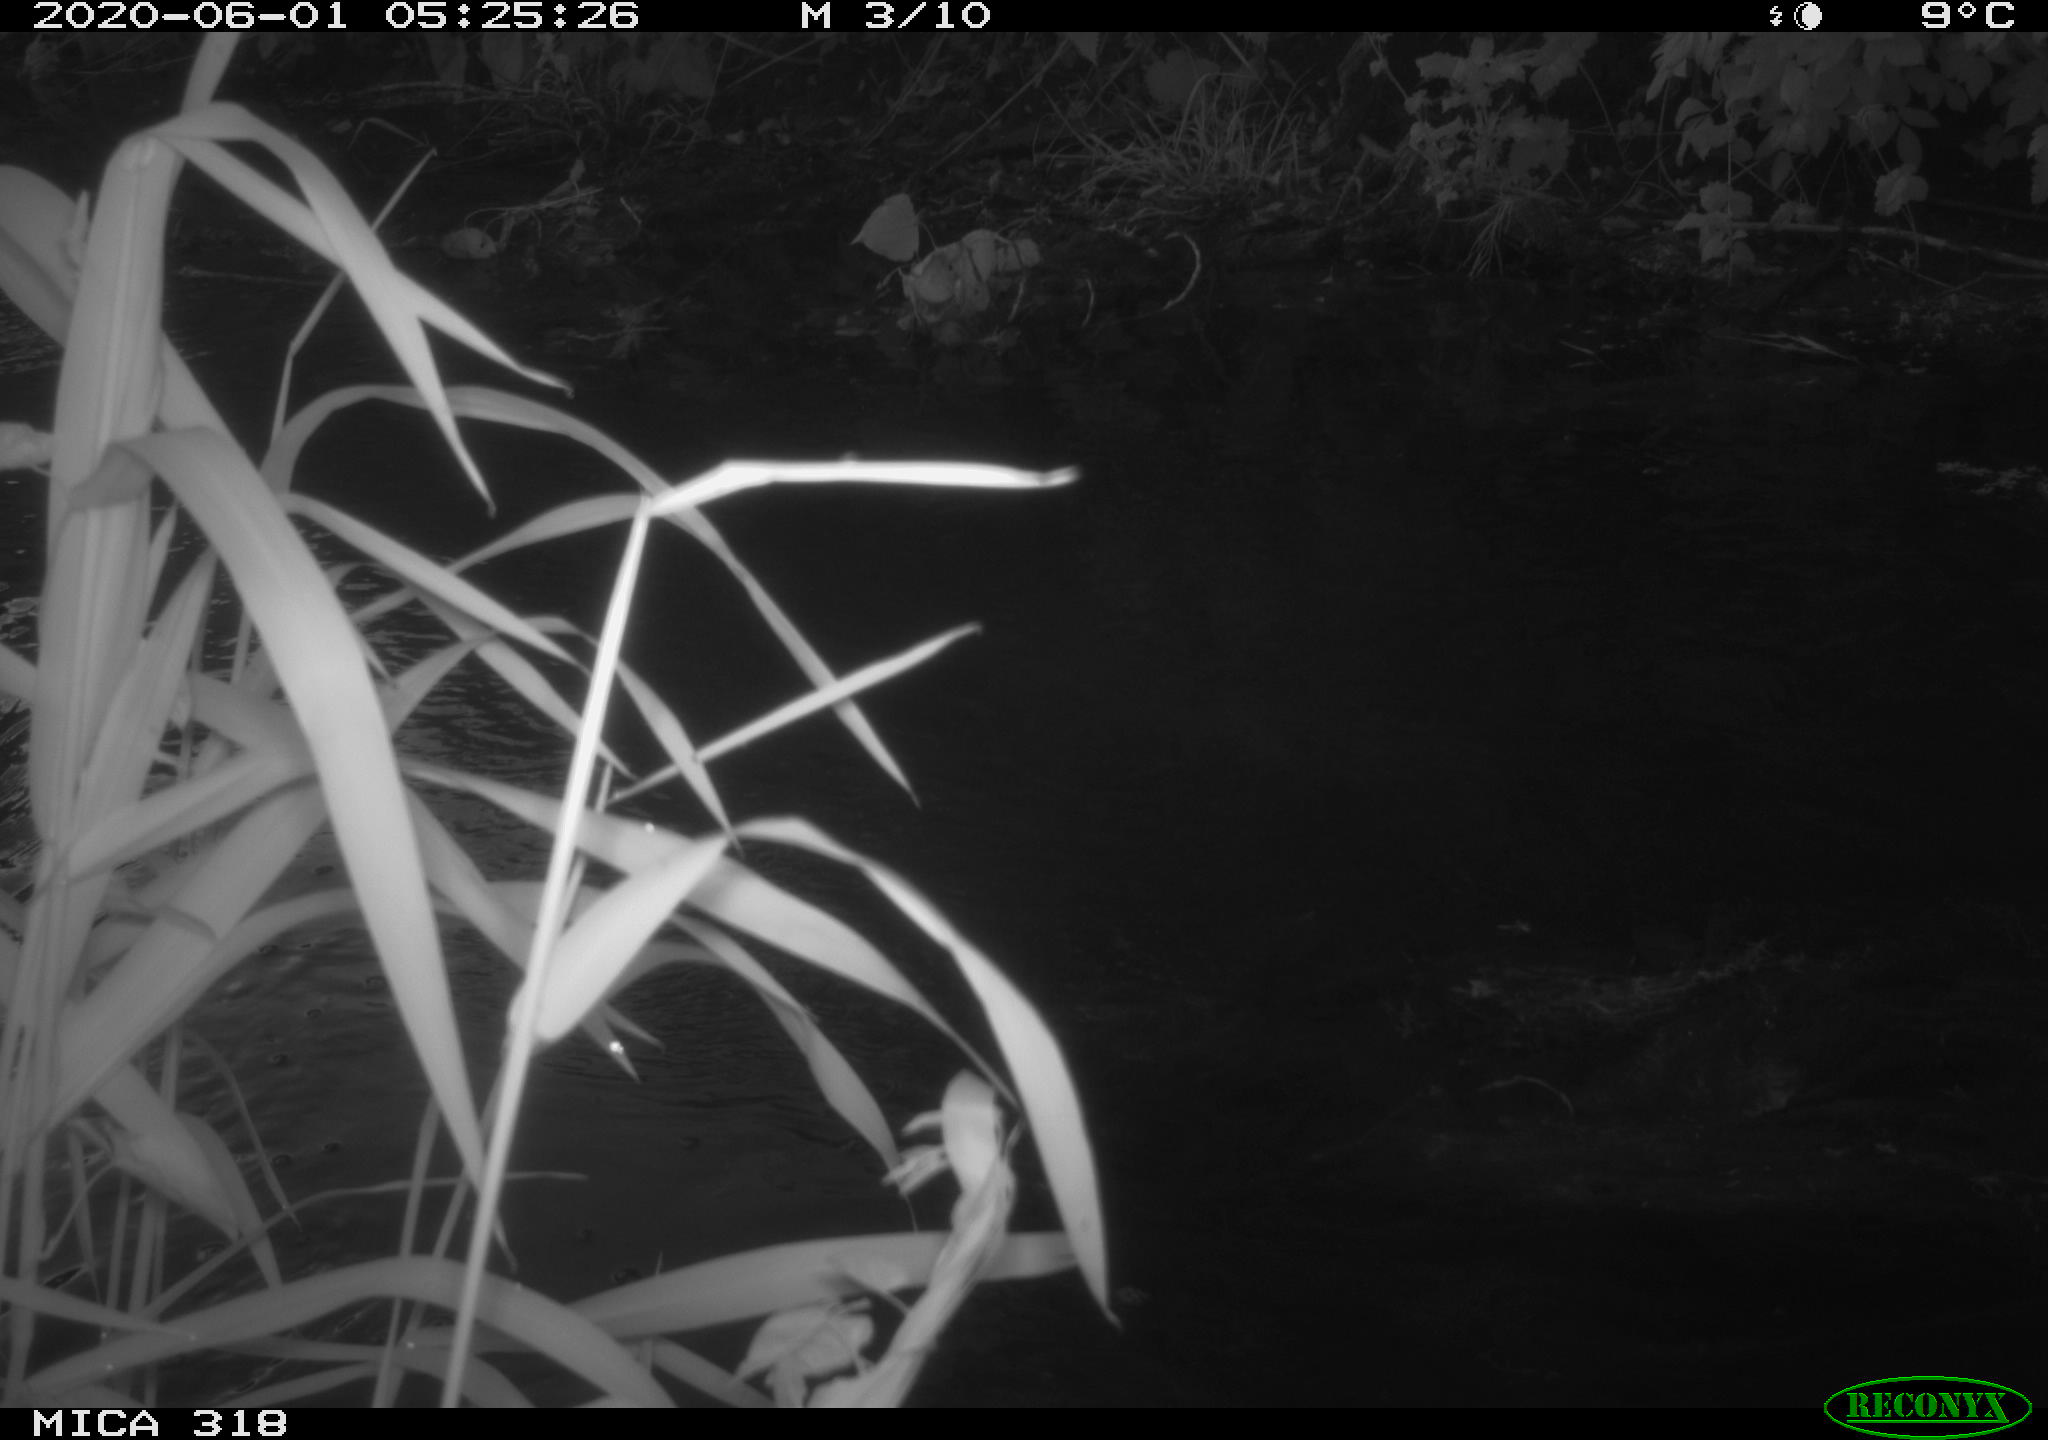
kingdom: Animalia
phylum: Chordata
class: Aves
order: Anseriformes
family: Anatidae
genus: Anas
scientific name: Anas platyrhynchos
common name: Mallard
